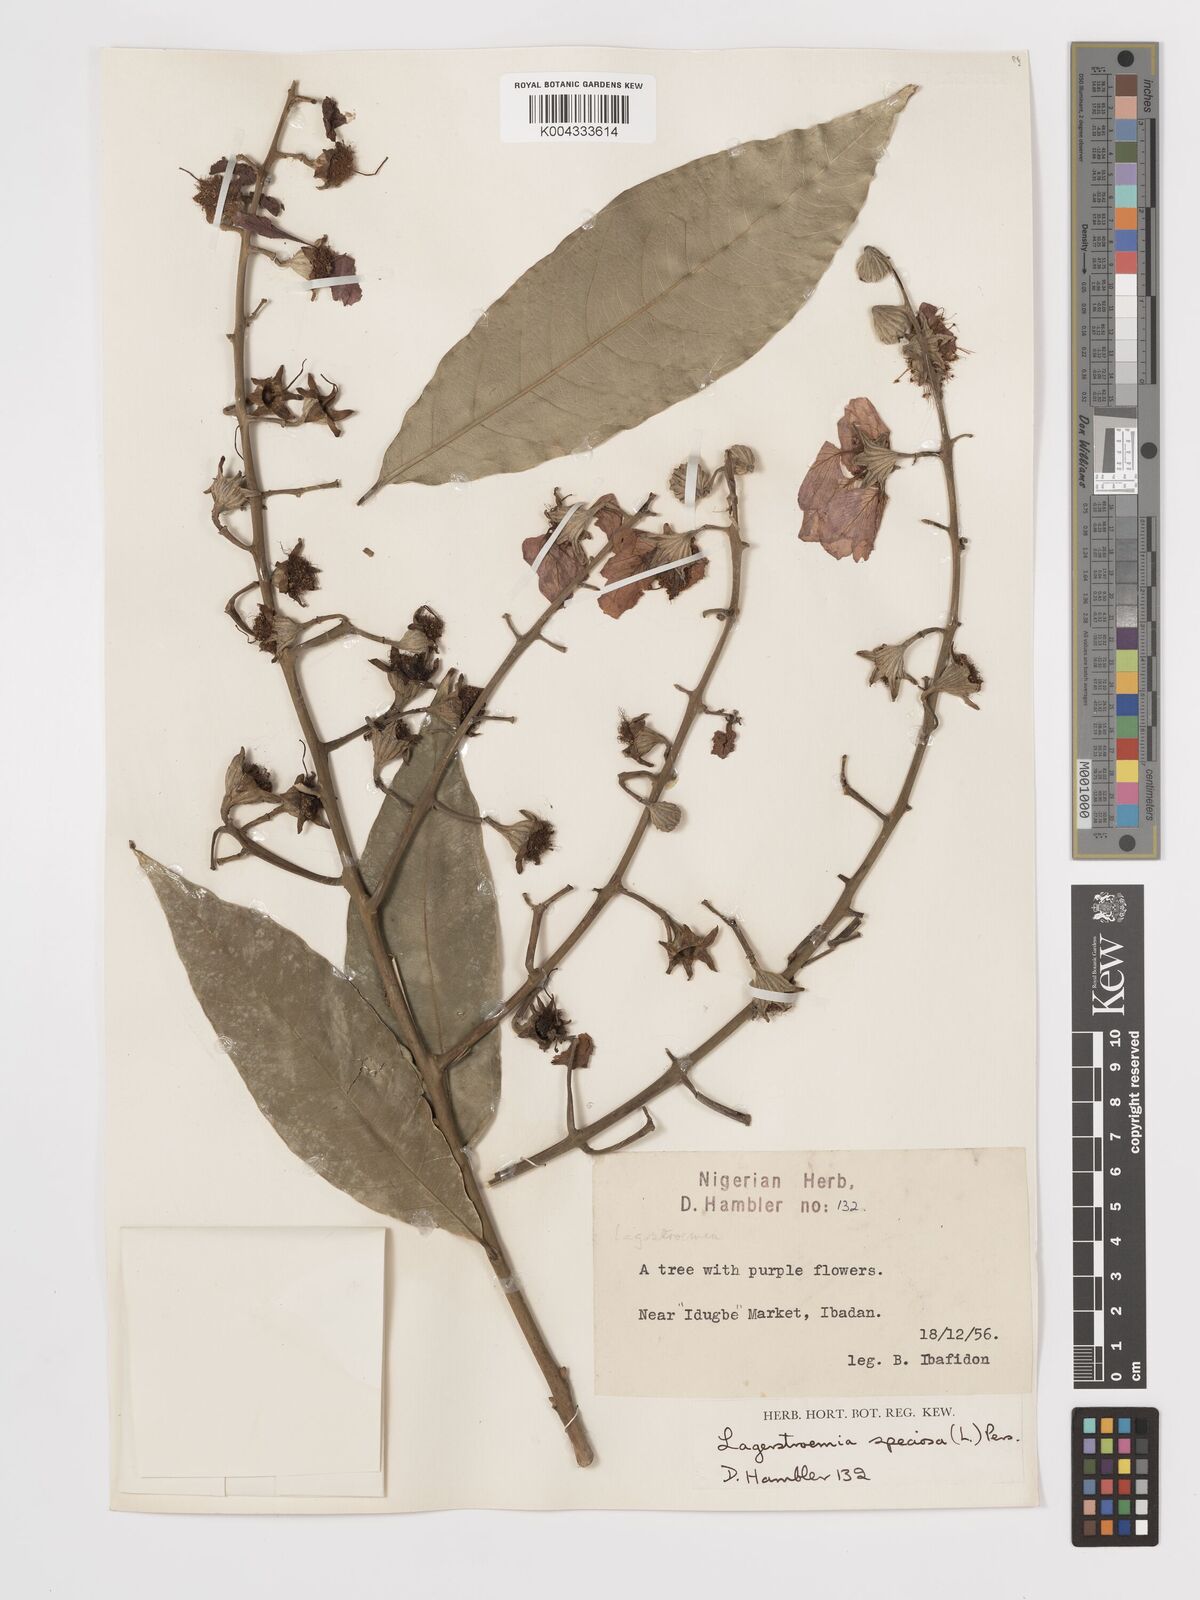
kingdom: Plantae
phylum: Tracheophyta
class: Magnoliopsida
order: Myrtales
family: Lythraceae
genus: Lagerstroemia
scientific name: Lagerstroemia speciosa
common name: Queen's crape-myrtle
